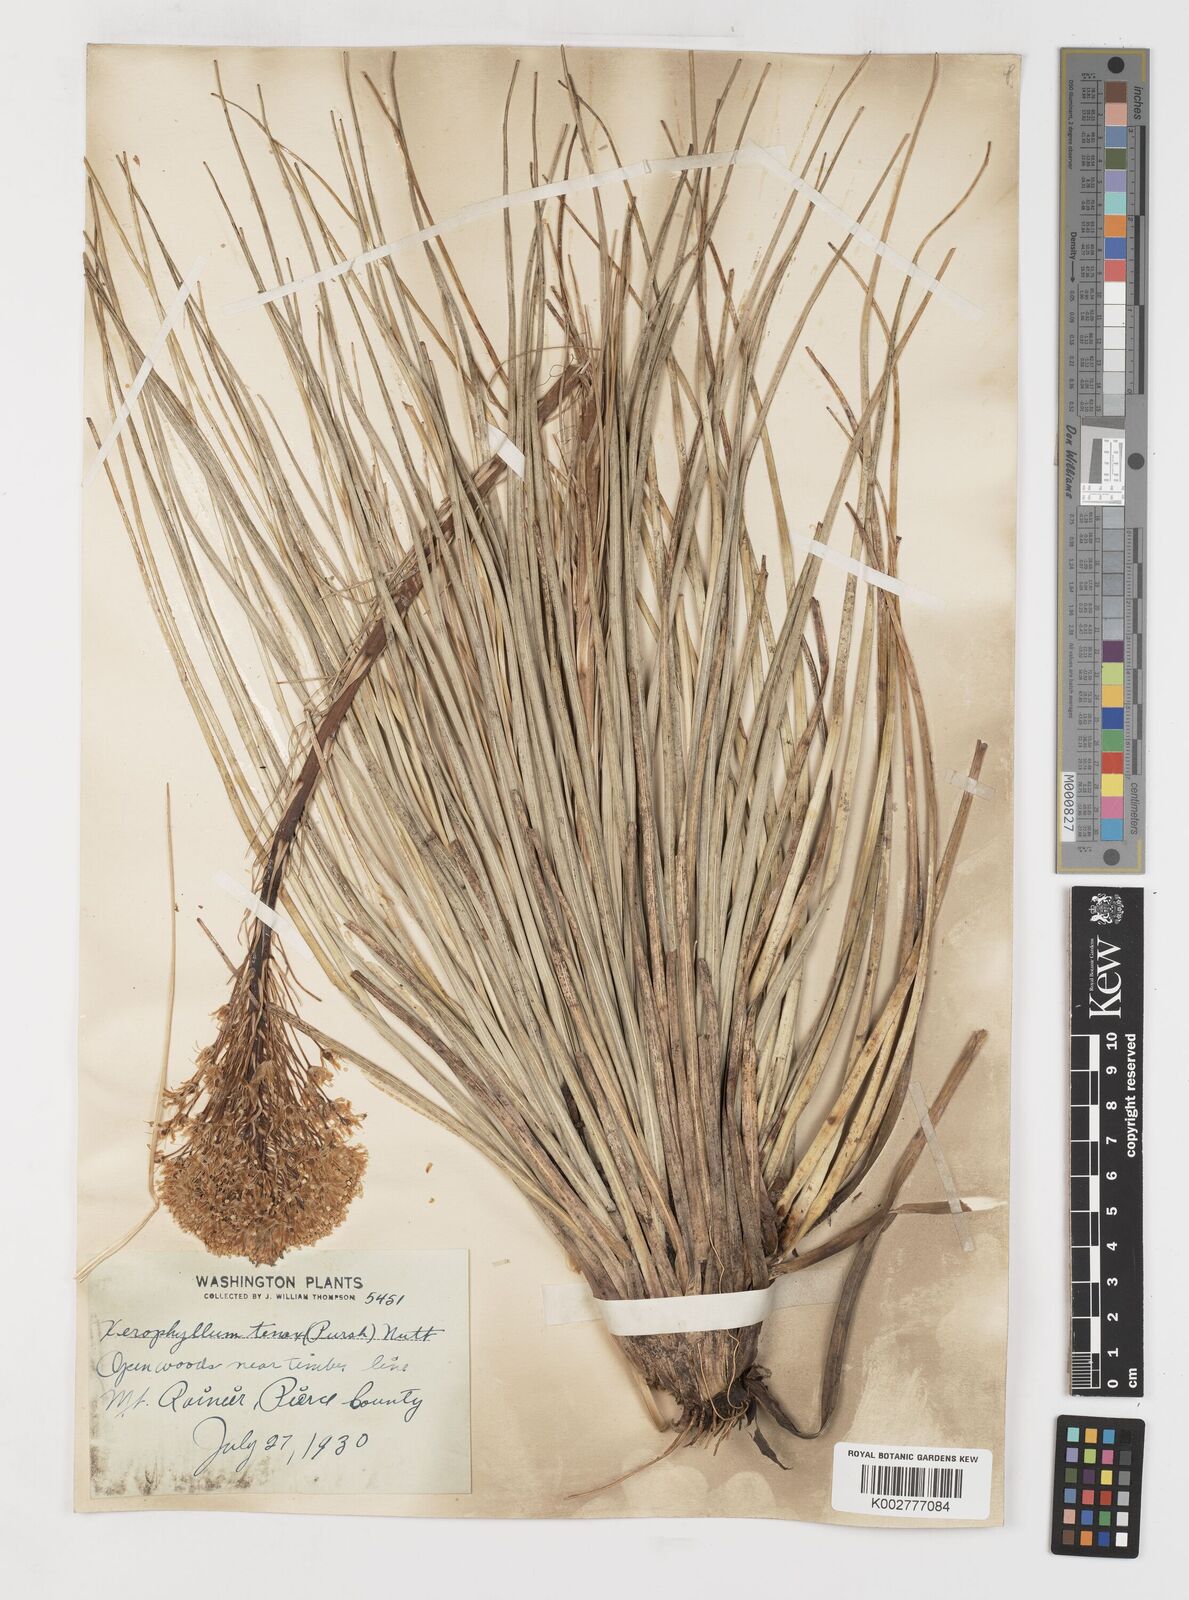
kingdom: Plantae
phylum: Tracheophyta
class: Liliopsida
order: Liliales
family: Melanthiaceae
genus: Xerophyllum
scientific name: Xerophyllum tenax
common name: Bear-grass
